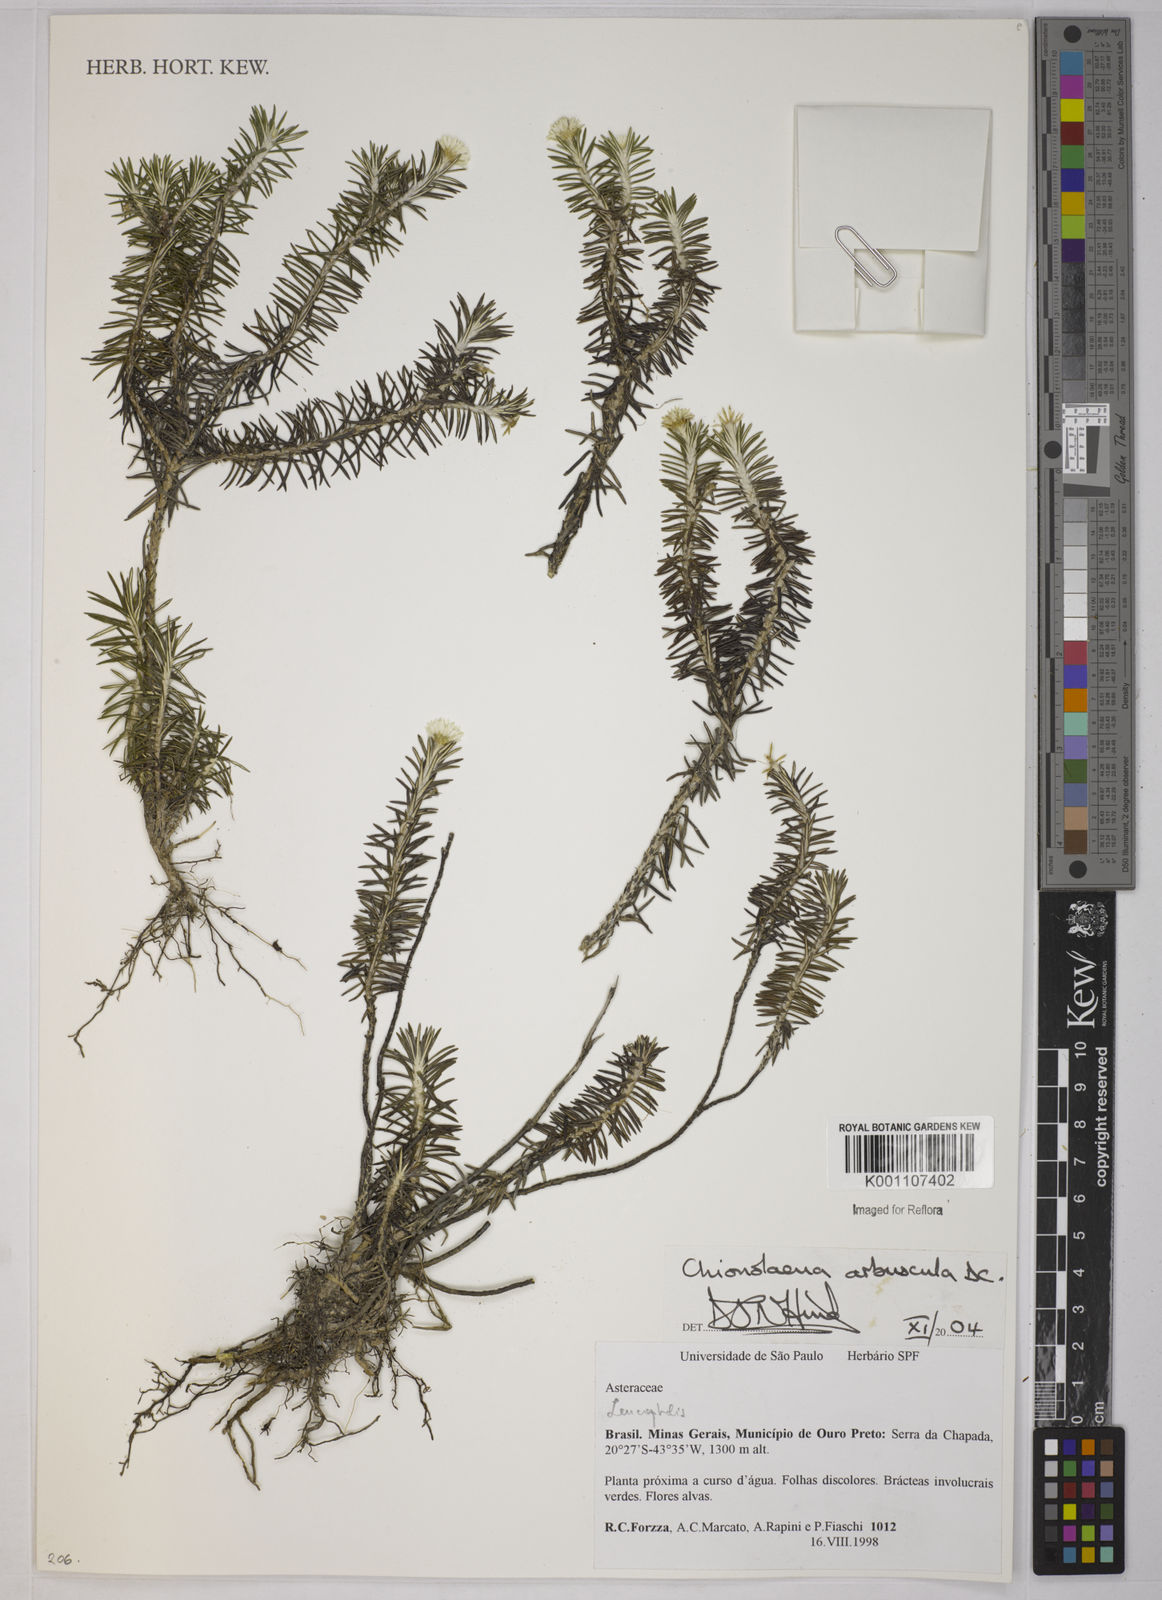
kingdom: Plantae
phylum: Tracheophyta
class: Magnoliopsida
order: Asterales
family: Asteraceae
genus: Chionolaena
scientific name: Chionolaena arbuscula
